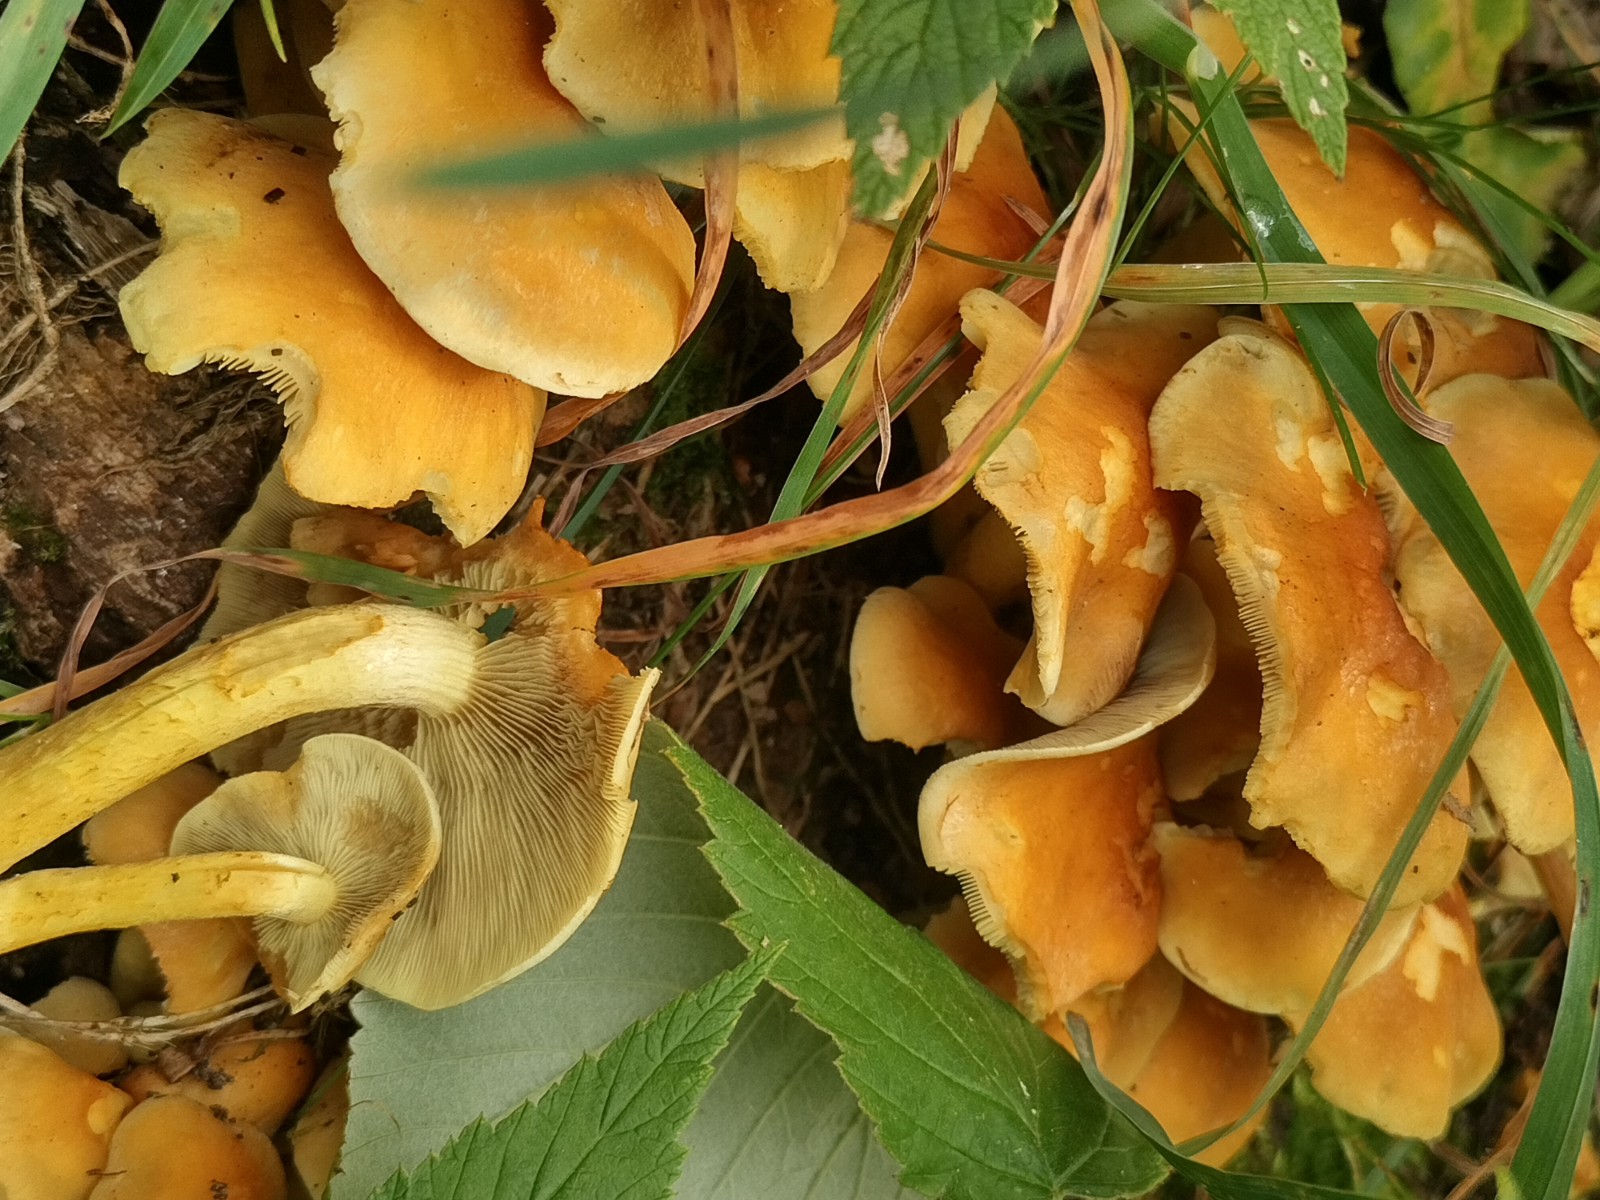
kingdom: Fungi
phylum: Basidiomycota
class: Agaricomycetes
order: Agaricales
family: Strophariaceae
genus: Hypholoma
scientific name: Hypholoma fasciculare
